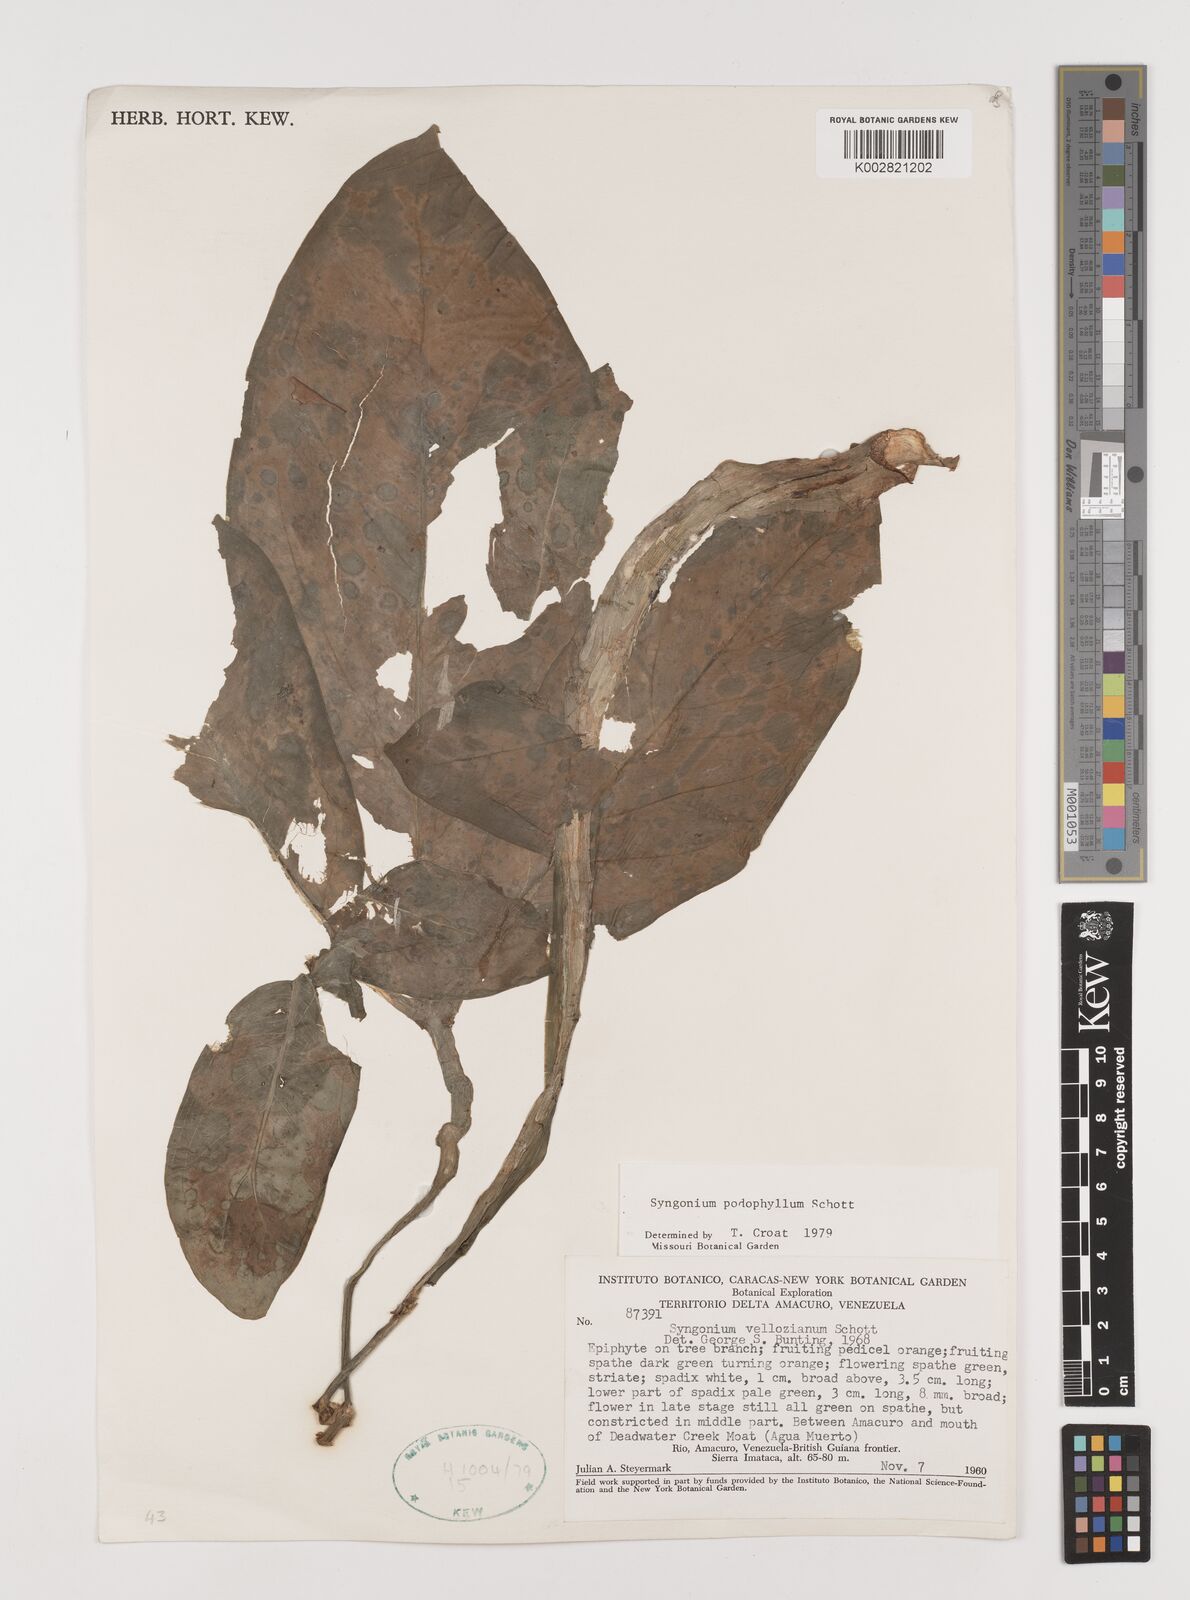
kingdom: Plantae
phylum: Tracheophyta
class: Liliopsida
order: Alismatales
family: Araceae
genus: Syngonium
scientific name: Syngonium podophyllum
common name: American evergreen
